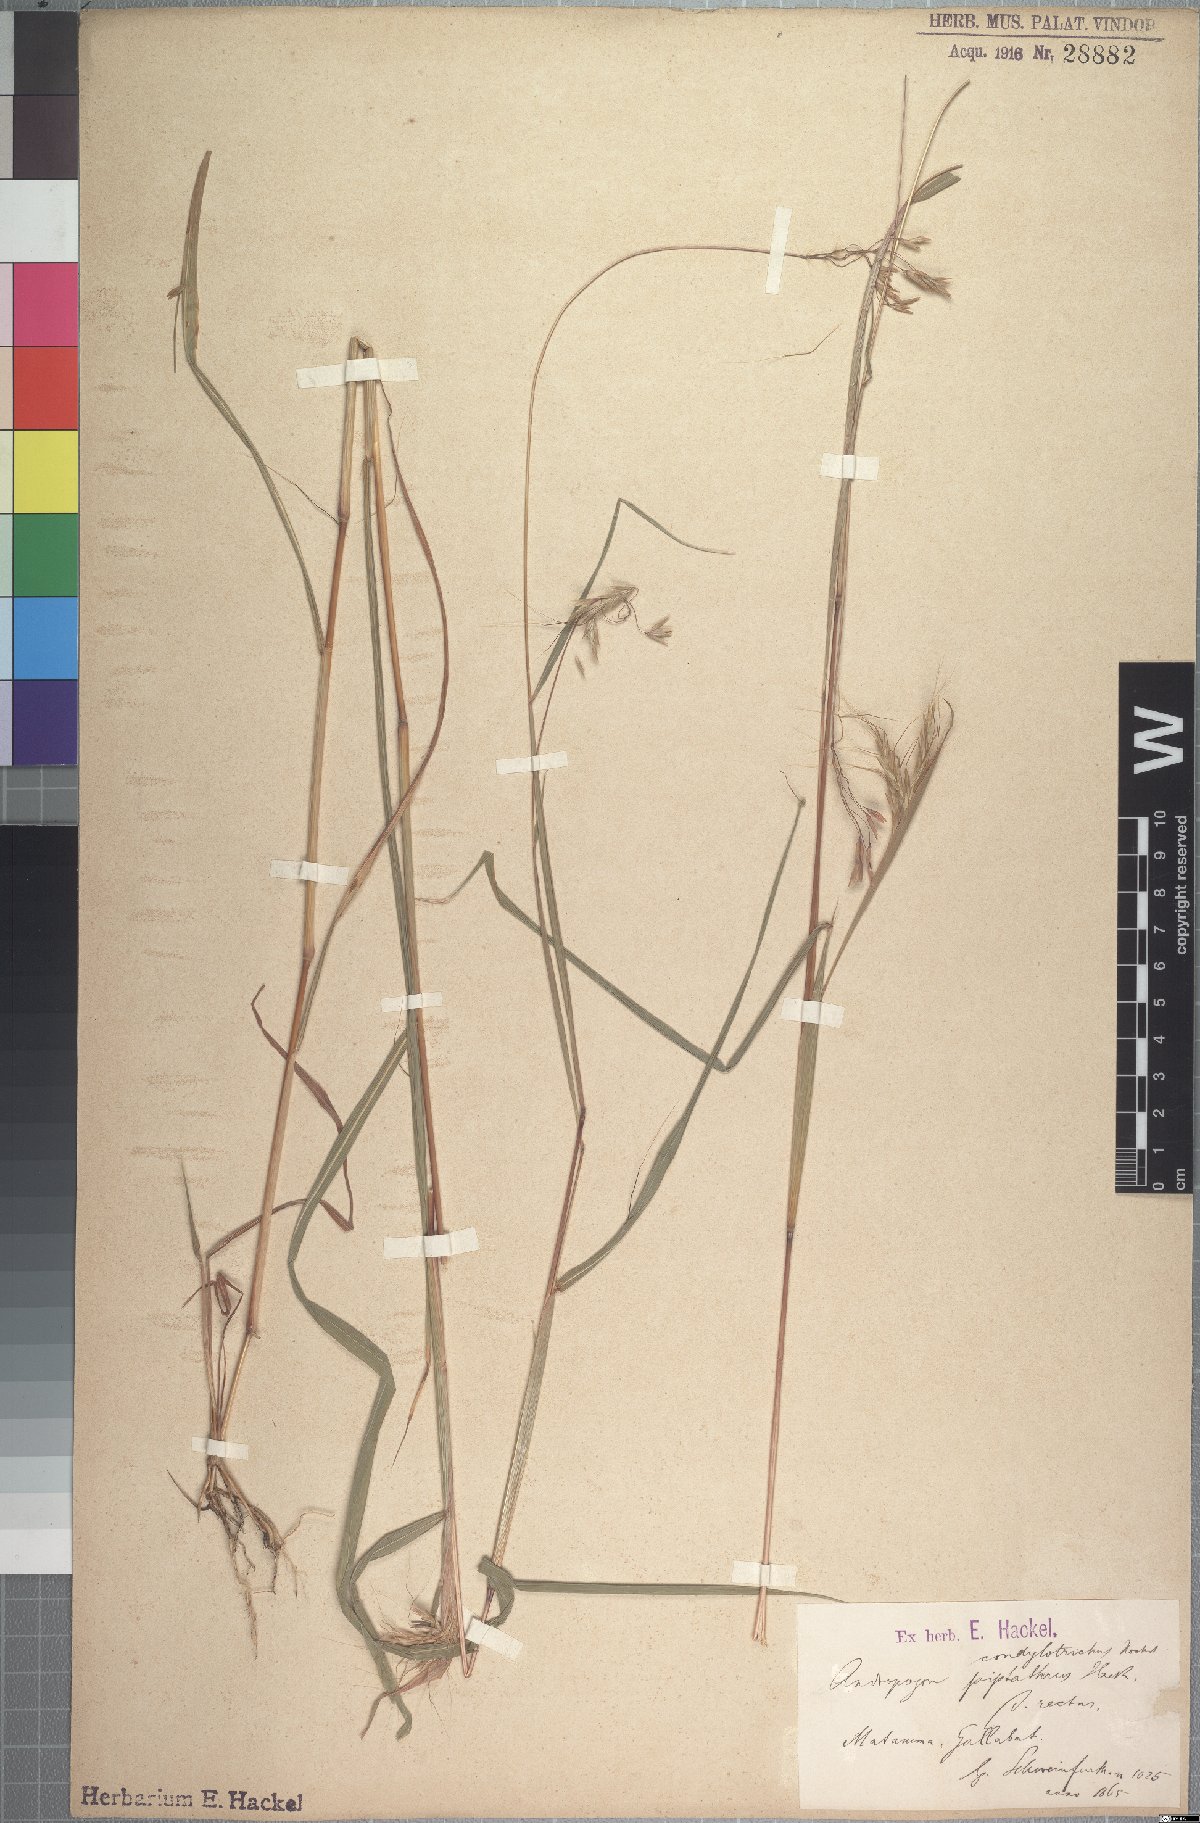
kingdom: Plantae
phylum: Tracheophyta
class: Liliopsida
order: Poales
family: Poaceae
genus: Euclasta
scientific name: Euclasta condylotricha
